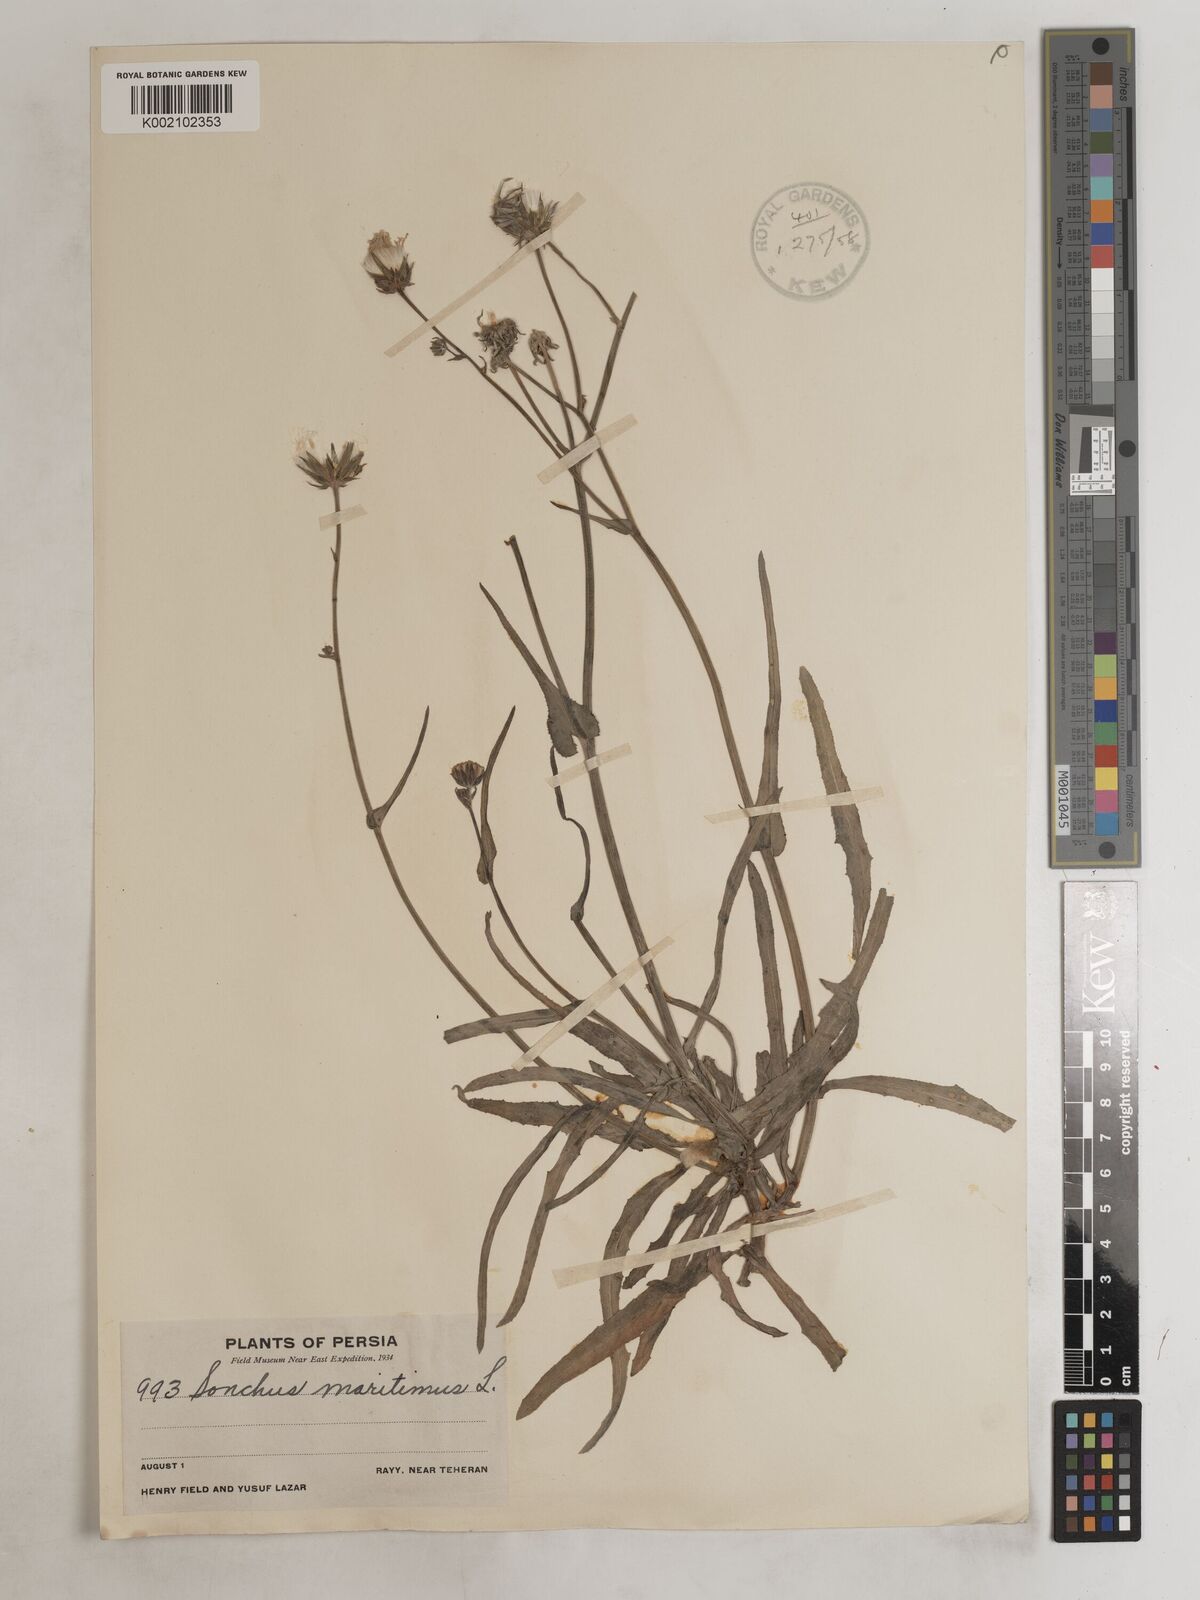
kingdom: Plantae
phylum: Tracheophyta
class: Magnoliopsida
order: Asterales
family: Asteraceae
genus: Sonchus
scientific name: Sonchus maritimus
